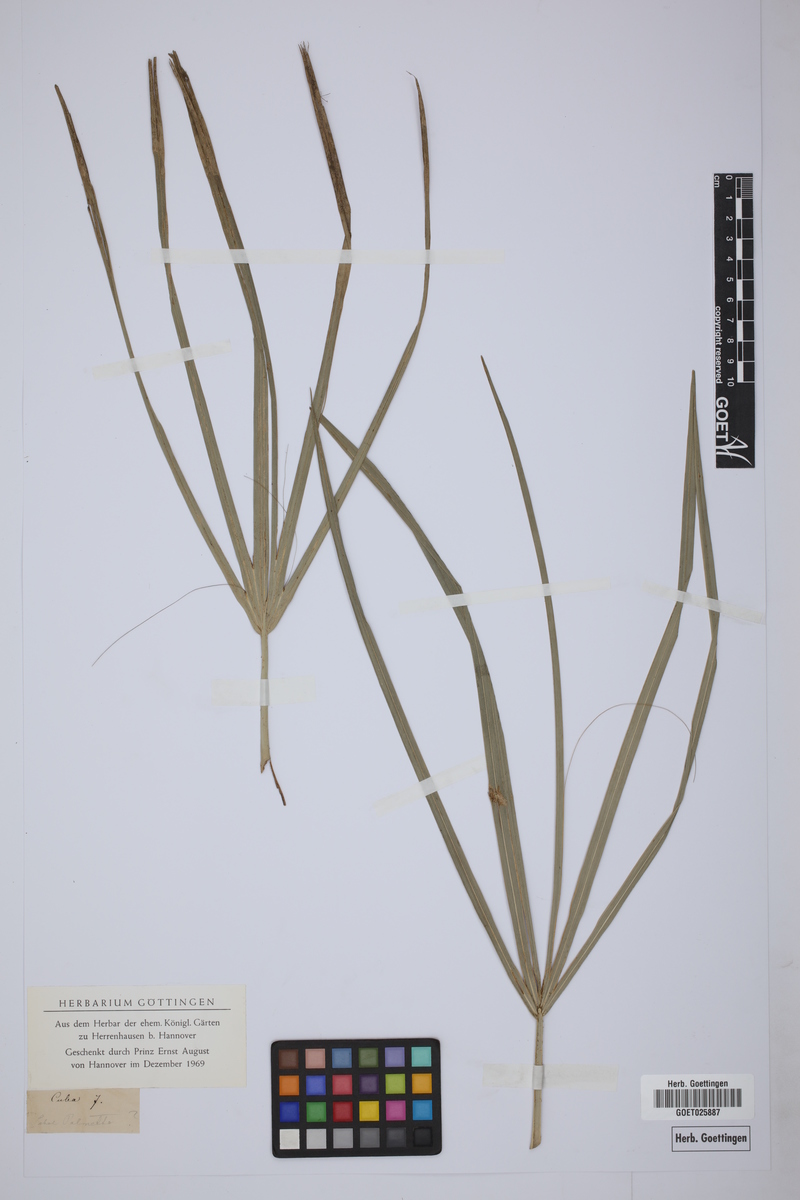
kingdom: Plantae
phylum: Tracheophyta
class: Liliopsida
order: Arecales
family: Arecaceae
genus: Sabal
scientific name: Sabal palmetto
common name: Blue palmetto
